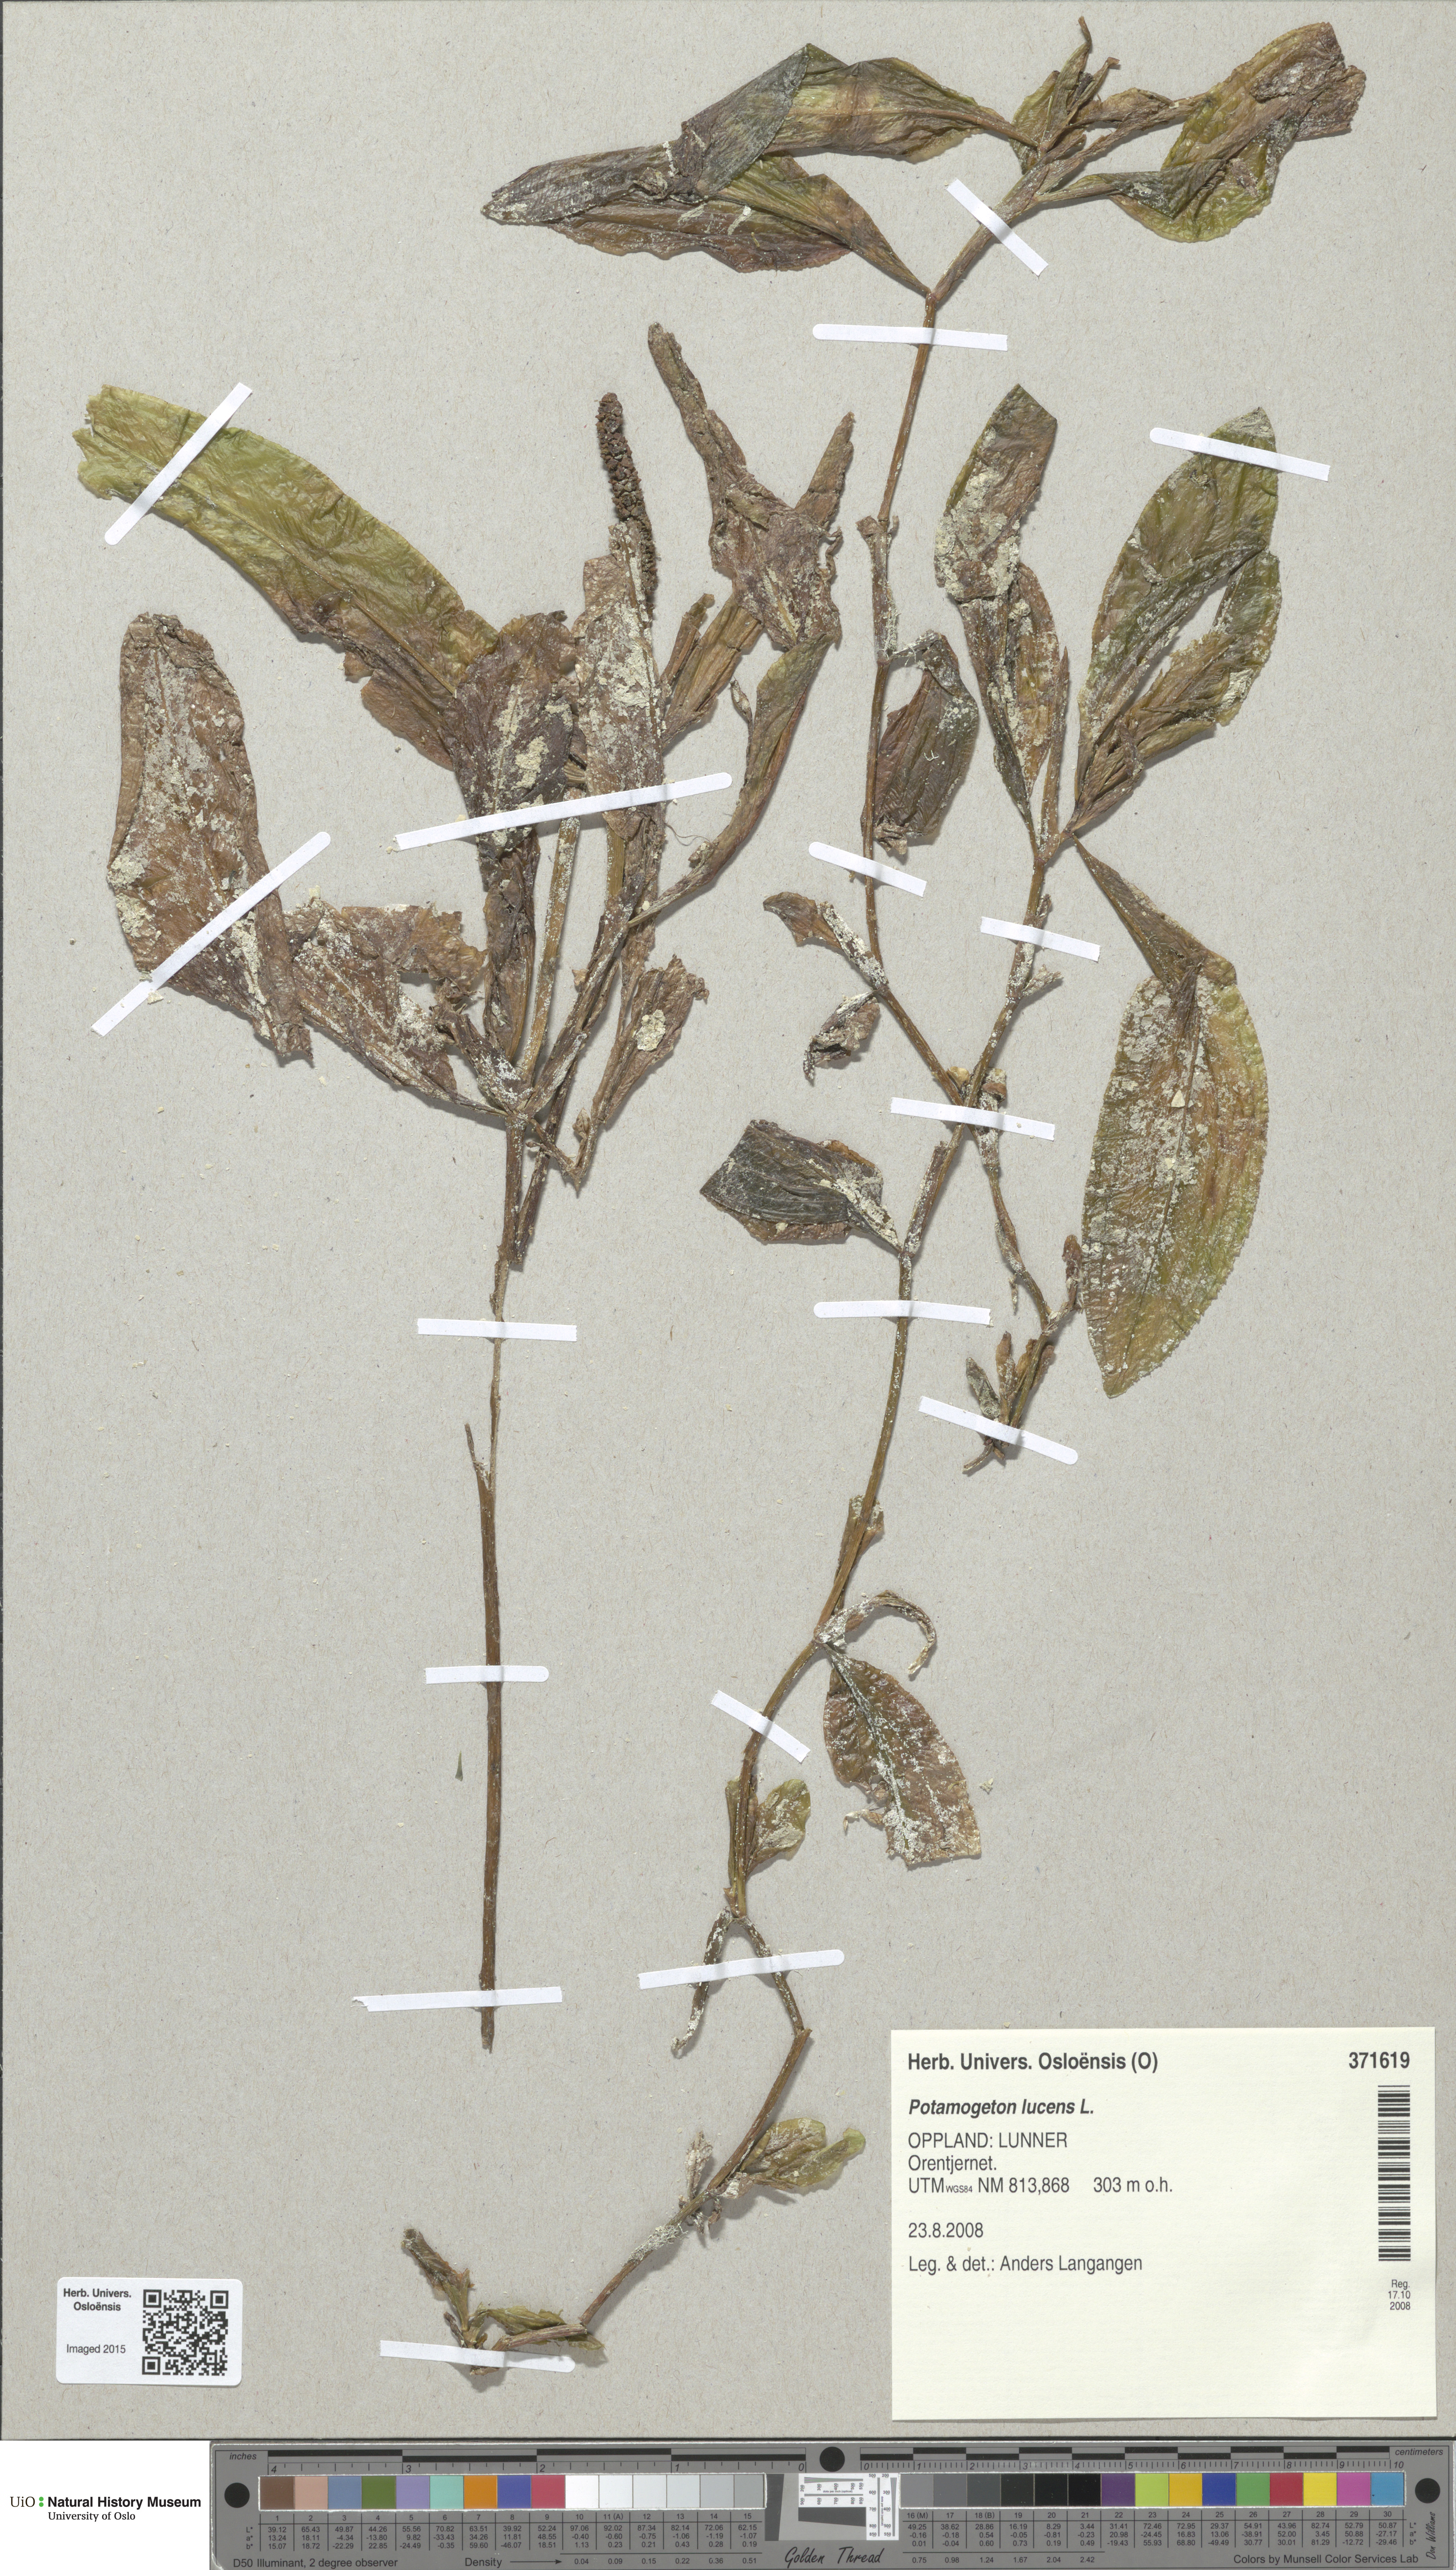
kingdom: Plantae
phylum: Tracheophyta
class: Liliopsida
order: Alismatales
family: Potamogetonaceae
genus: Potamogeton
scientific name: Potamogeton lucens
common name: Shining pondweed
